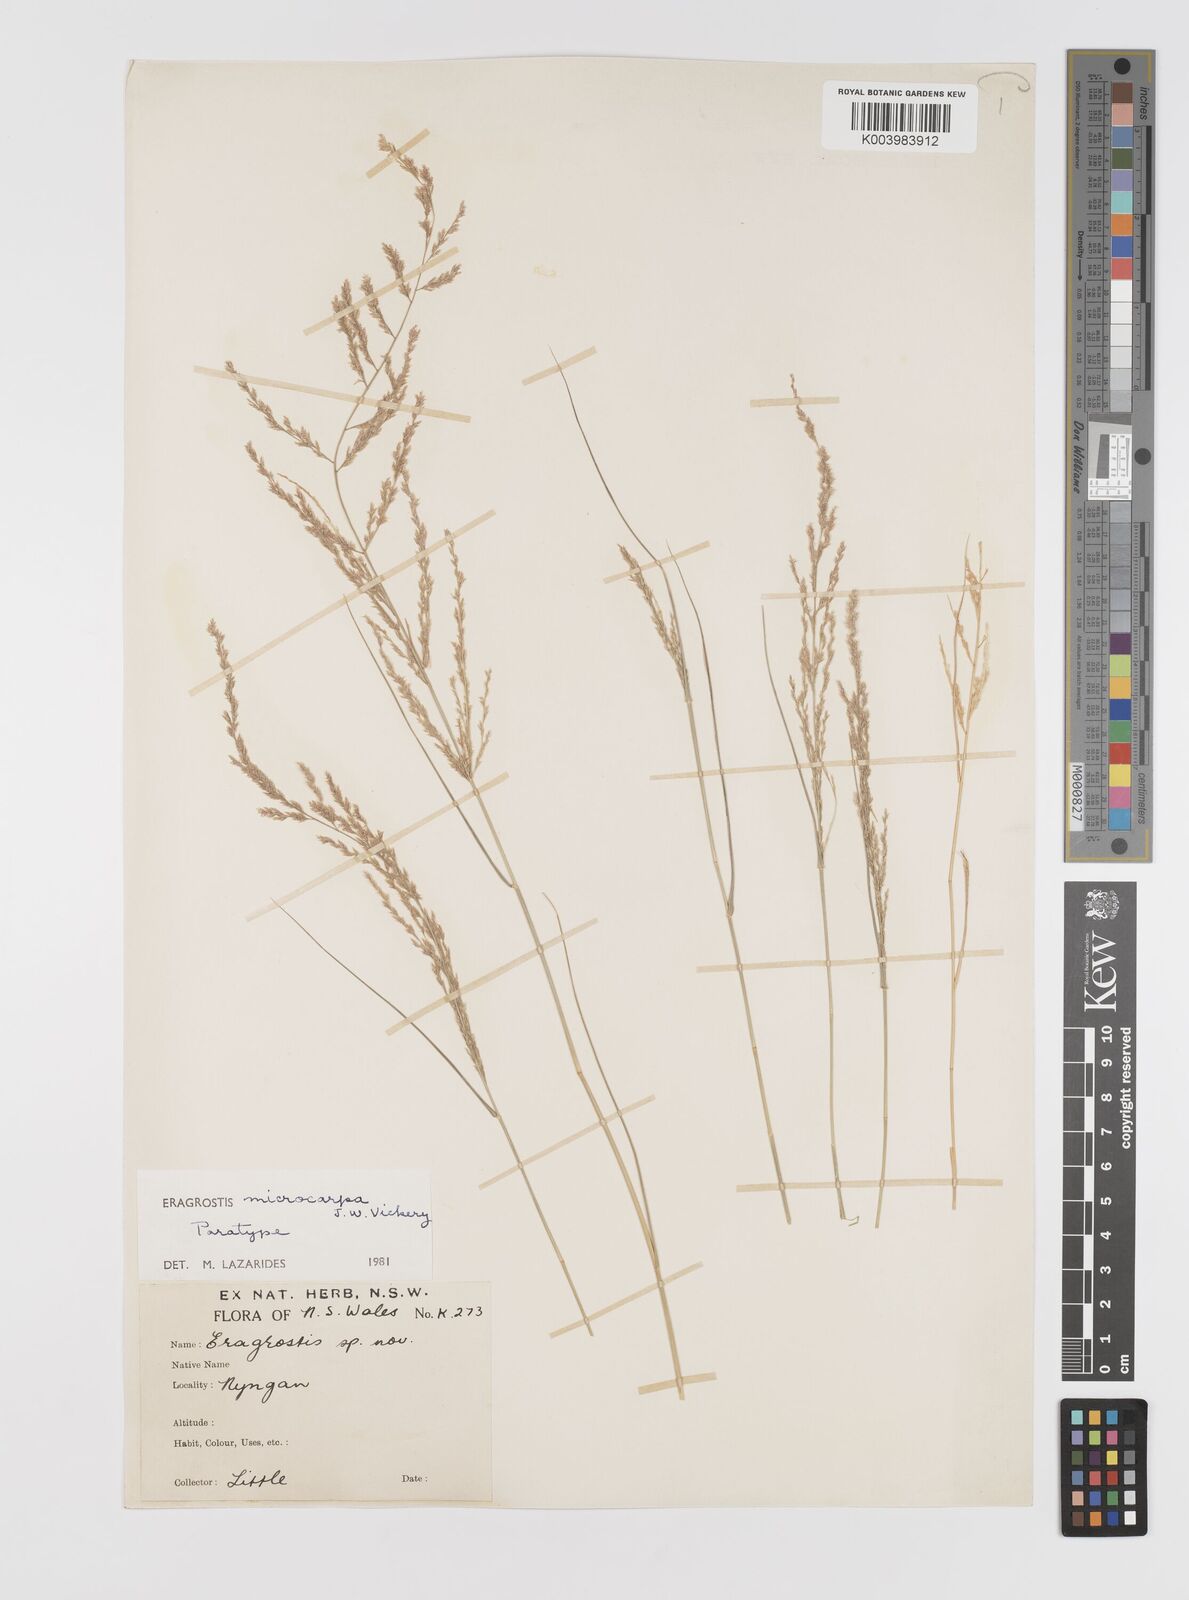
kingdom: Plantae
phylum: Tracheophyta
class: Liliopsida
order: Poales
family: Poaceae
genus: Eragrostis
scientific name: Eragrostis microcarpa
